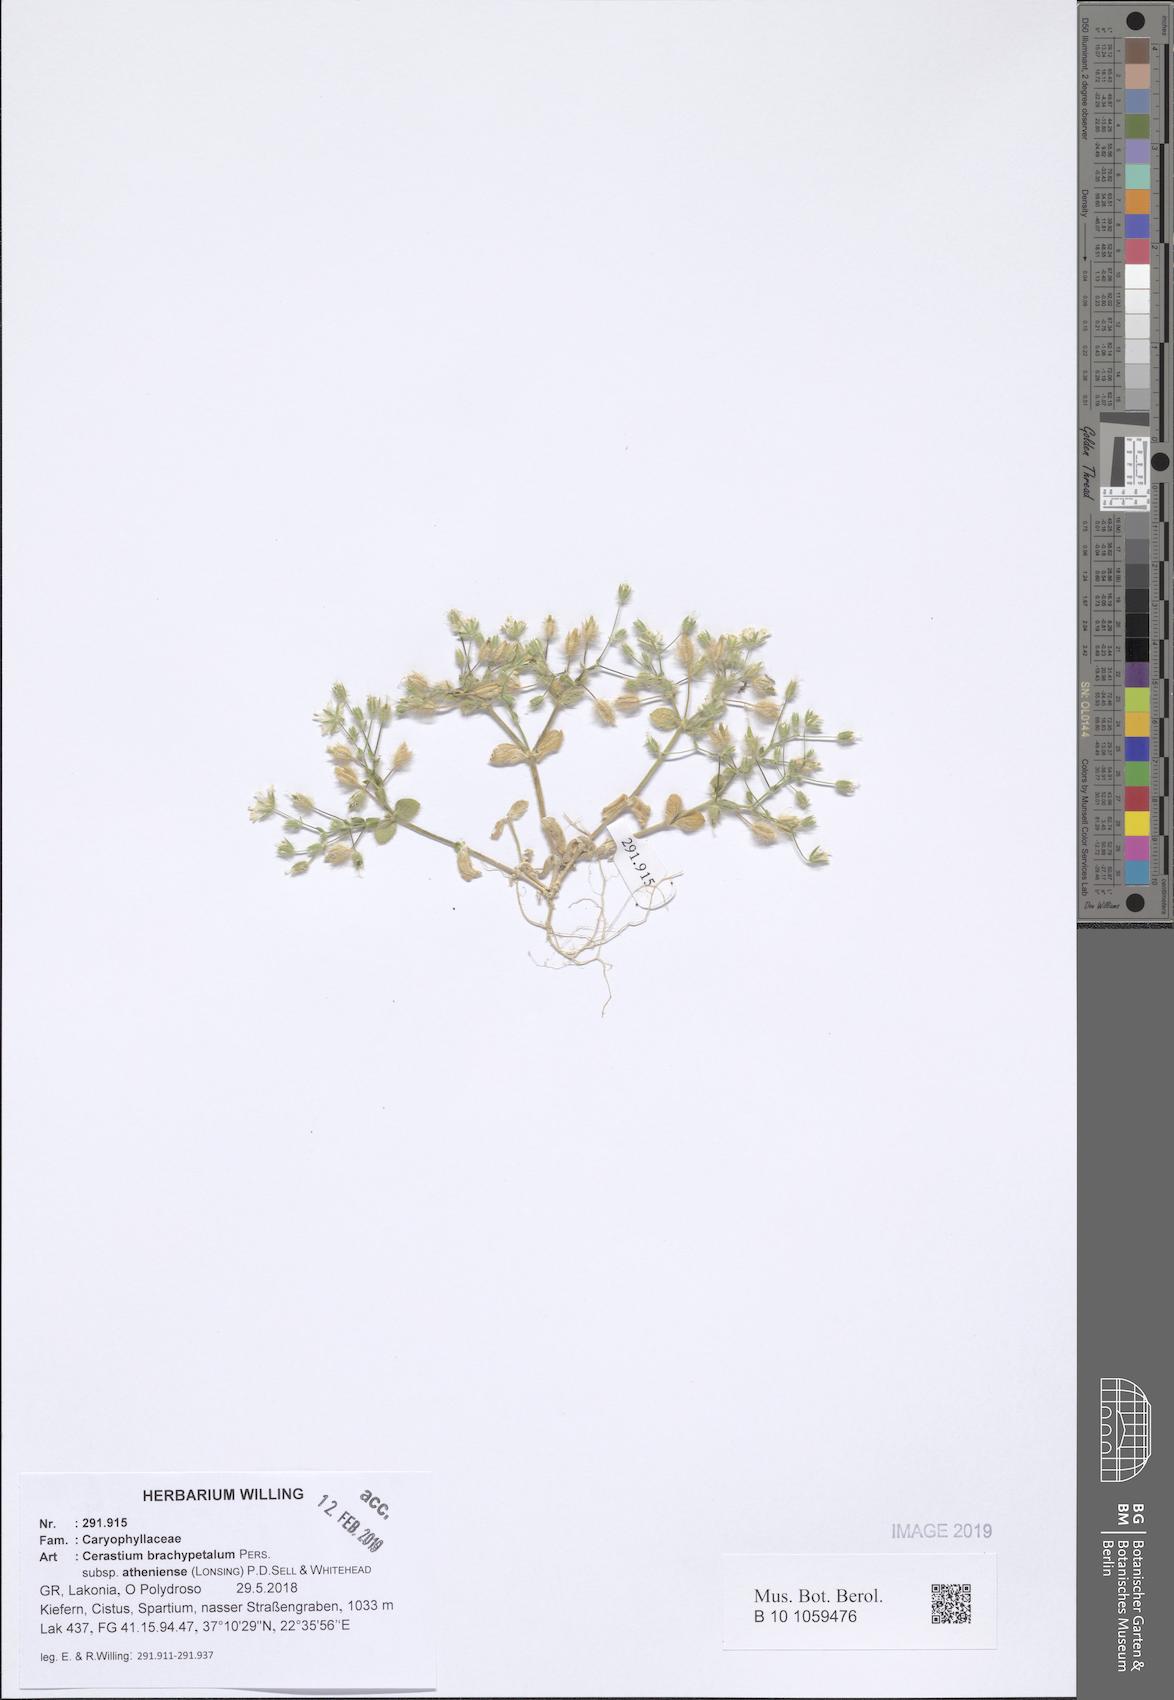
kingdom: Plantae
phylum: Tracheophyta
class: Magnoliopsida
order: Caryophyllales
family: Caryophyllaceae
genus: Cerastium
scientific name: Cerastium brachypetalum
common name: Grey mouse-ear
